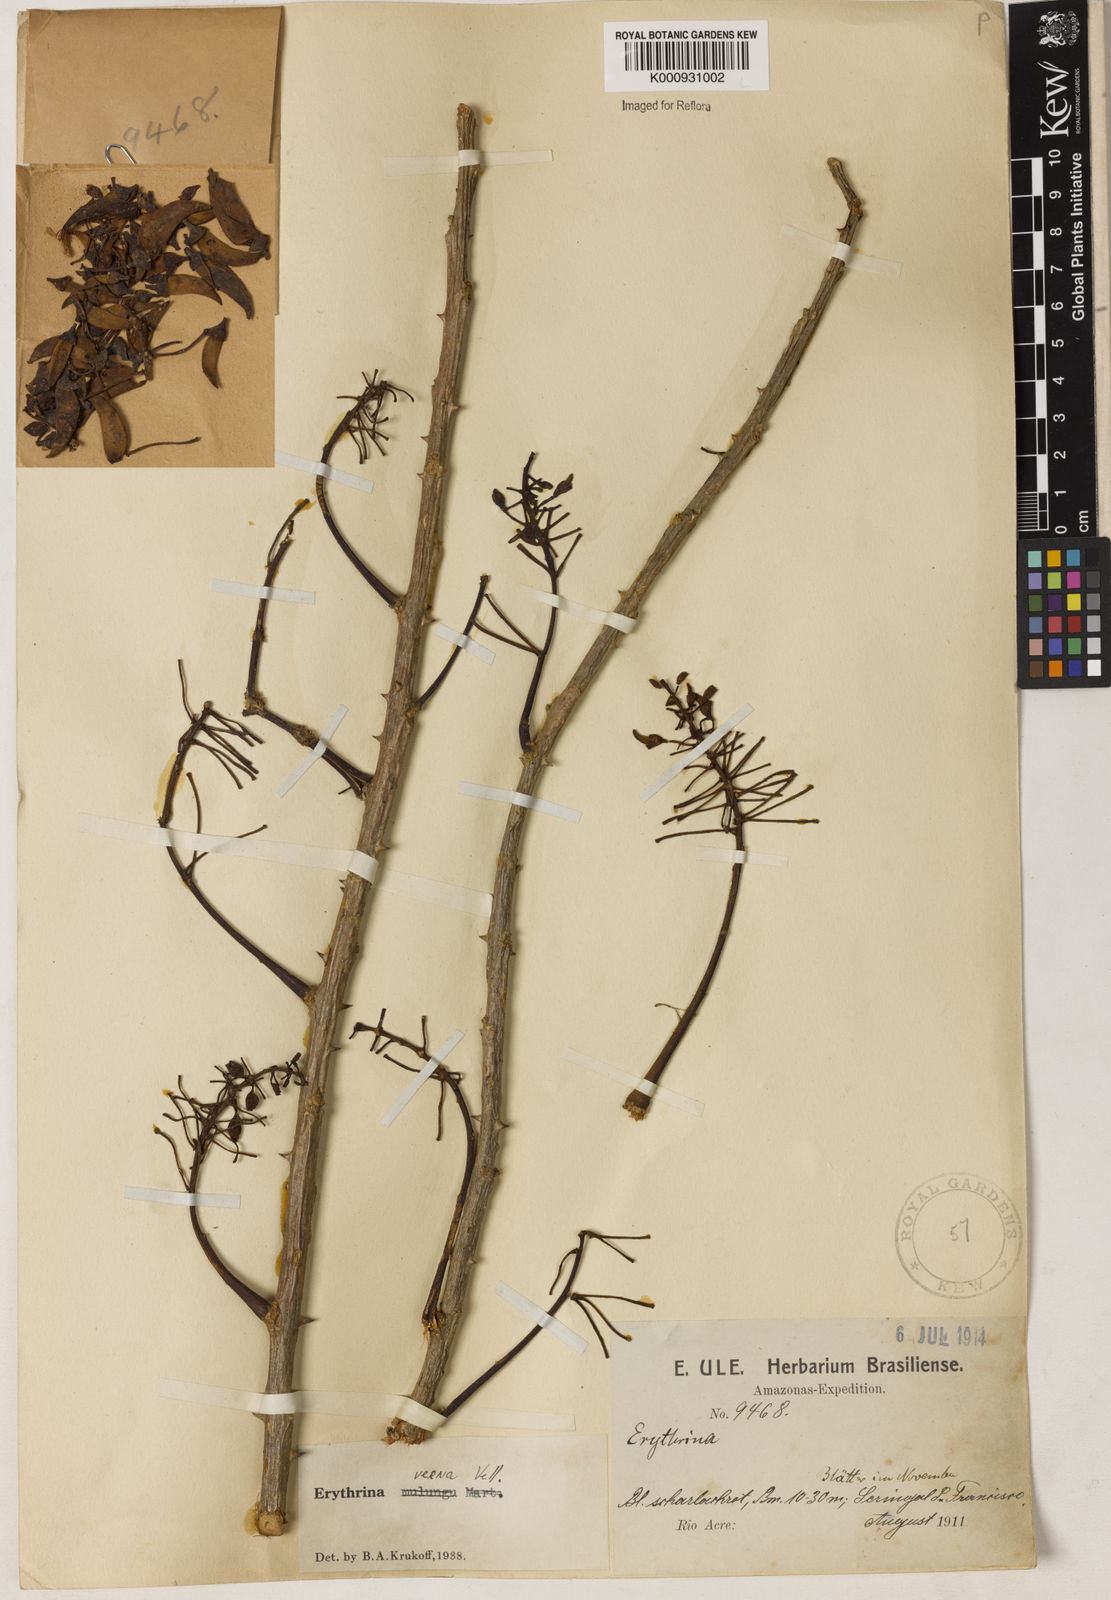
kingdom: Plantae
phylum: Tracheophyta
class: Magnoliopsida
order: Fabales
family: Fabaceae
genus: Erythrina
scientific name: Erythrina verna
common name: Mulungú
